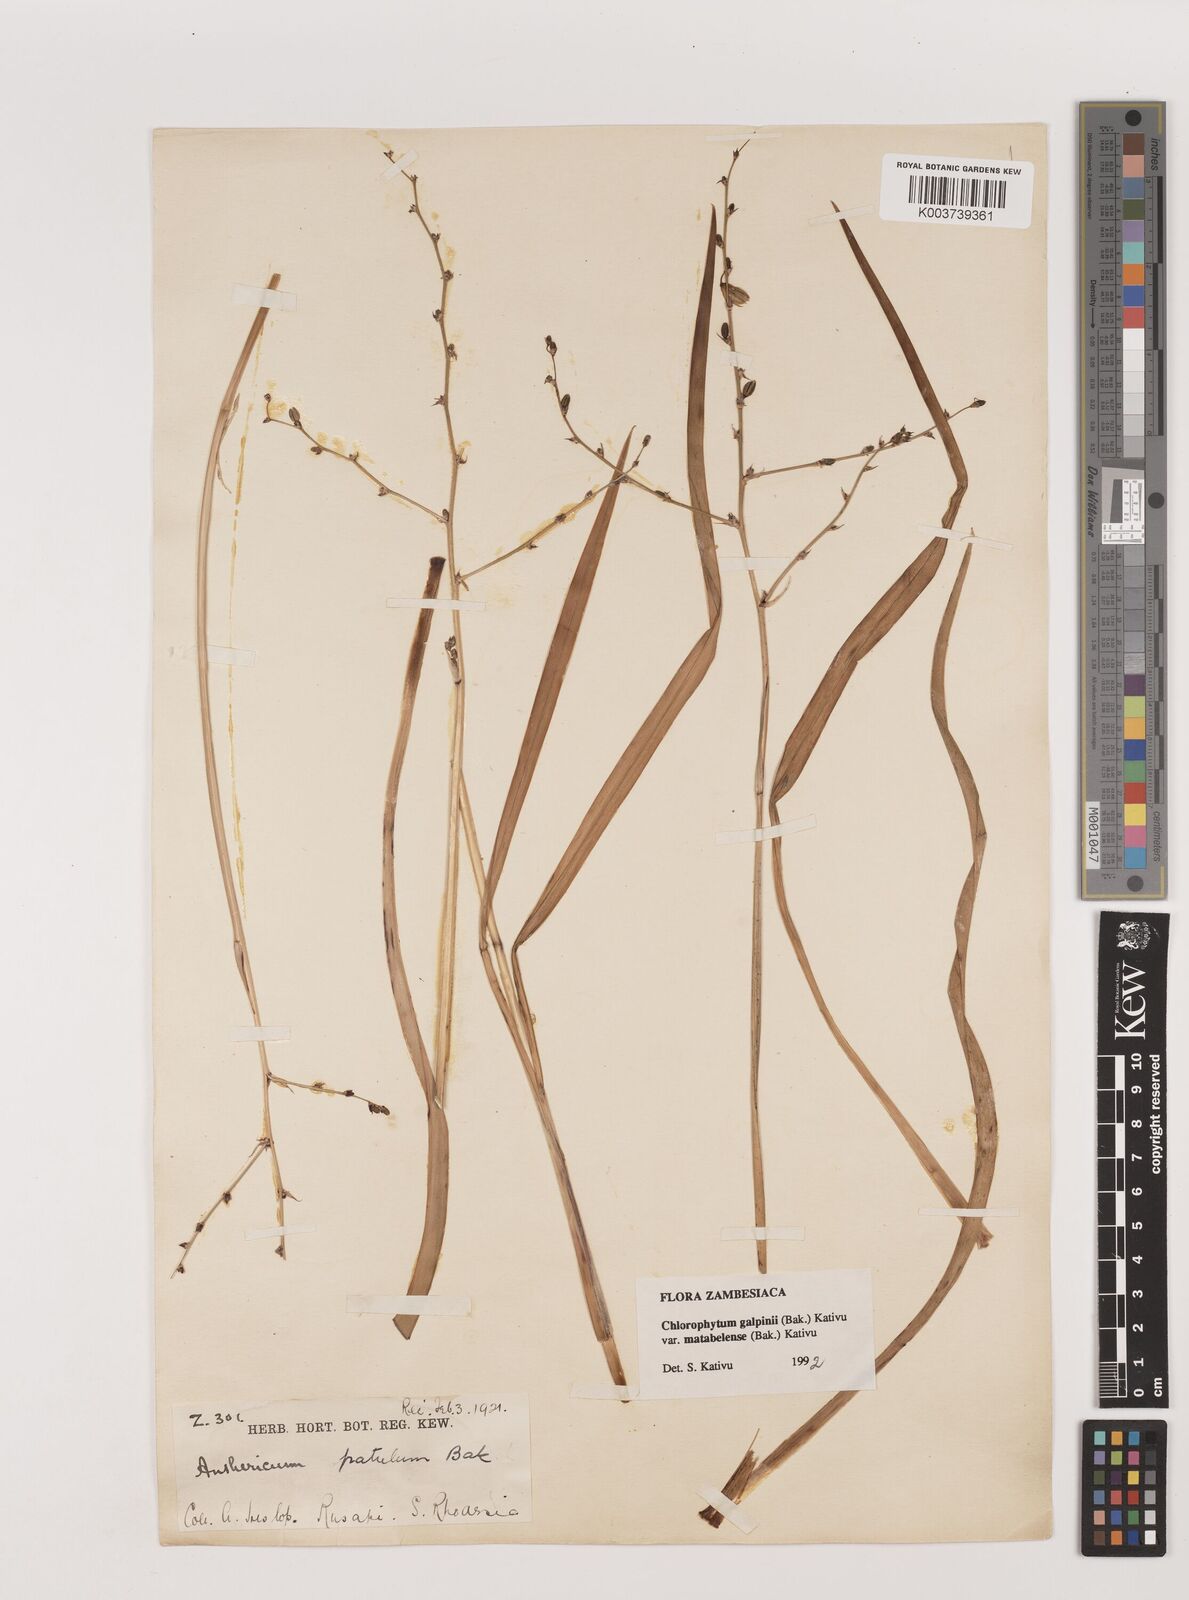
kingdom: Plantae
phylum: Tracheophyta
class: Liliopsida
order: Asparagales
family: Asparagaceae
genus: Chlorophytum
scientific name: Chlorophytum galpinii
